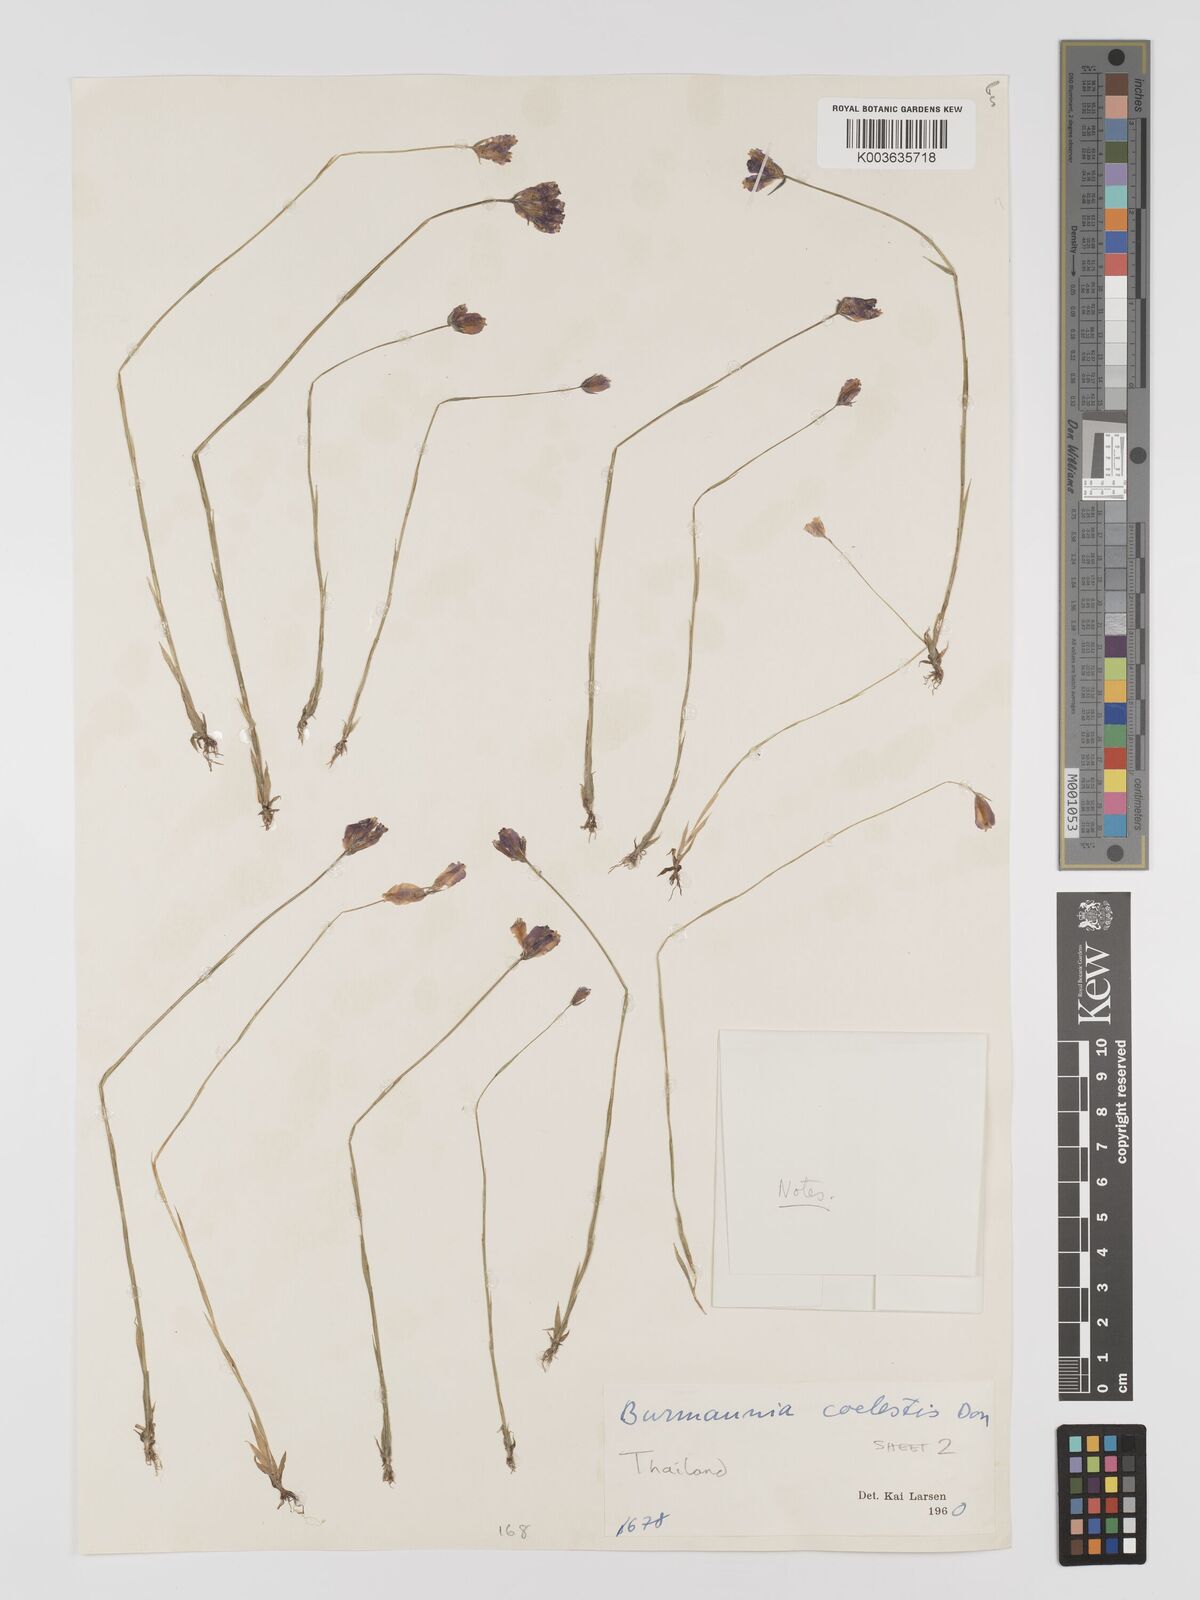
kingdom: Plantae
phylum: Tracheophyta
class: Liliopsida
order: Dioscoreales
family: Burmanniaceae
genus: Burmannia
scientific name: Burmannia coelestis
